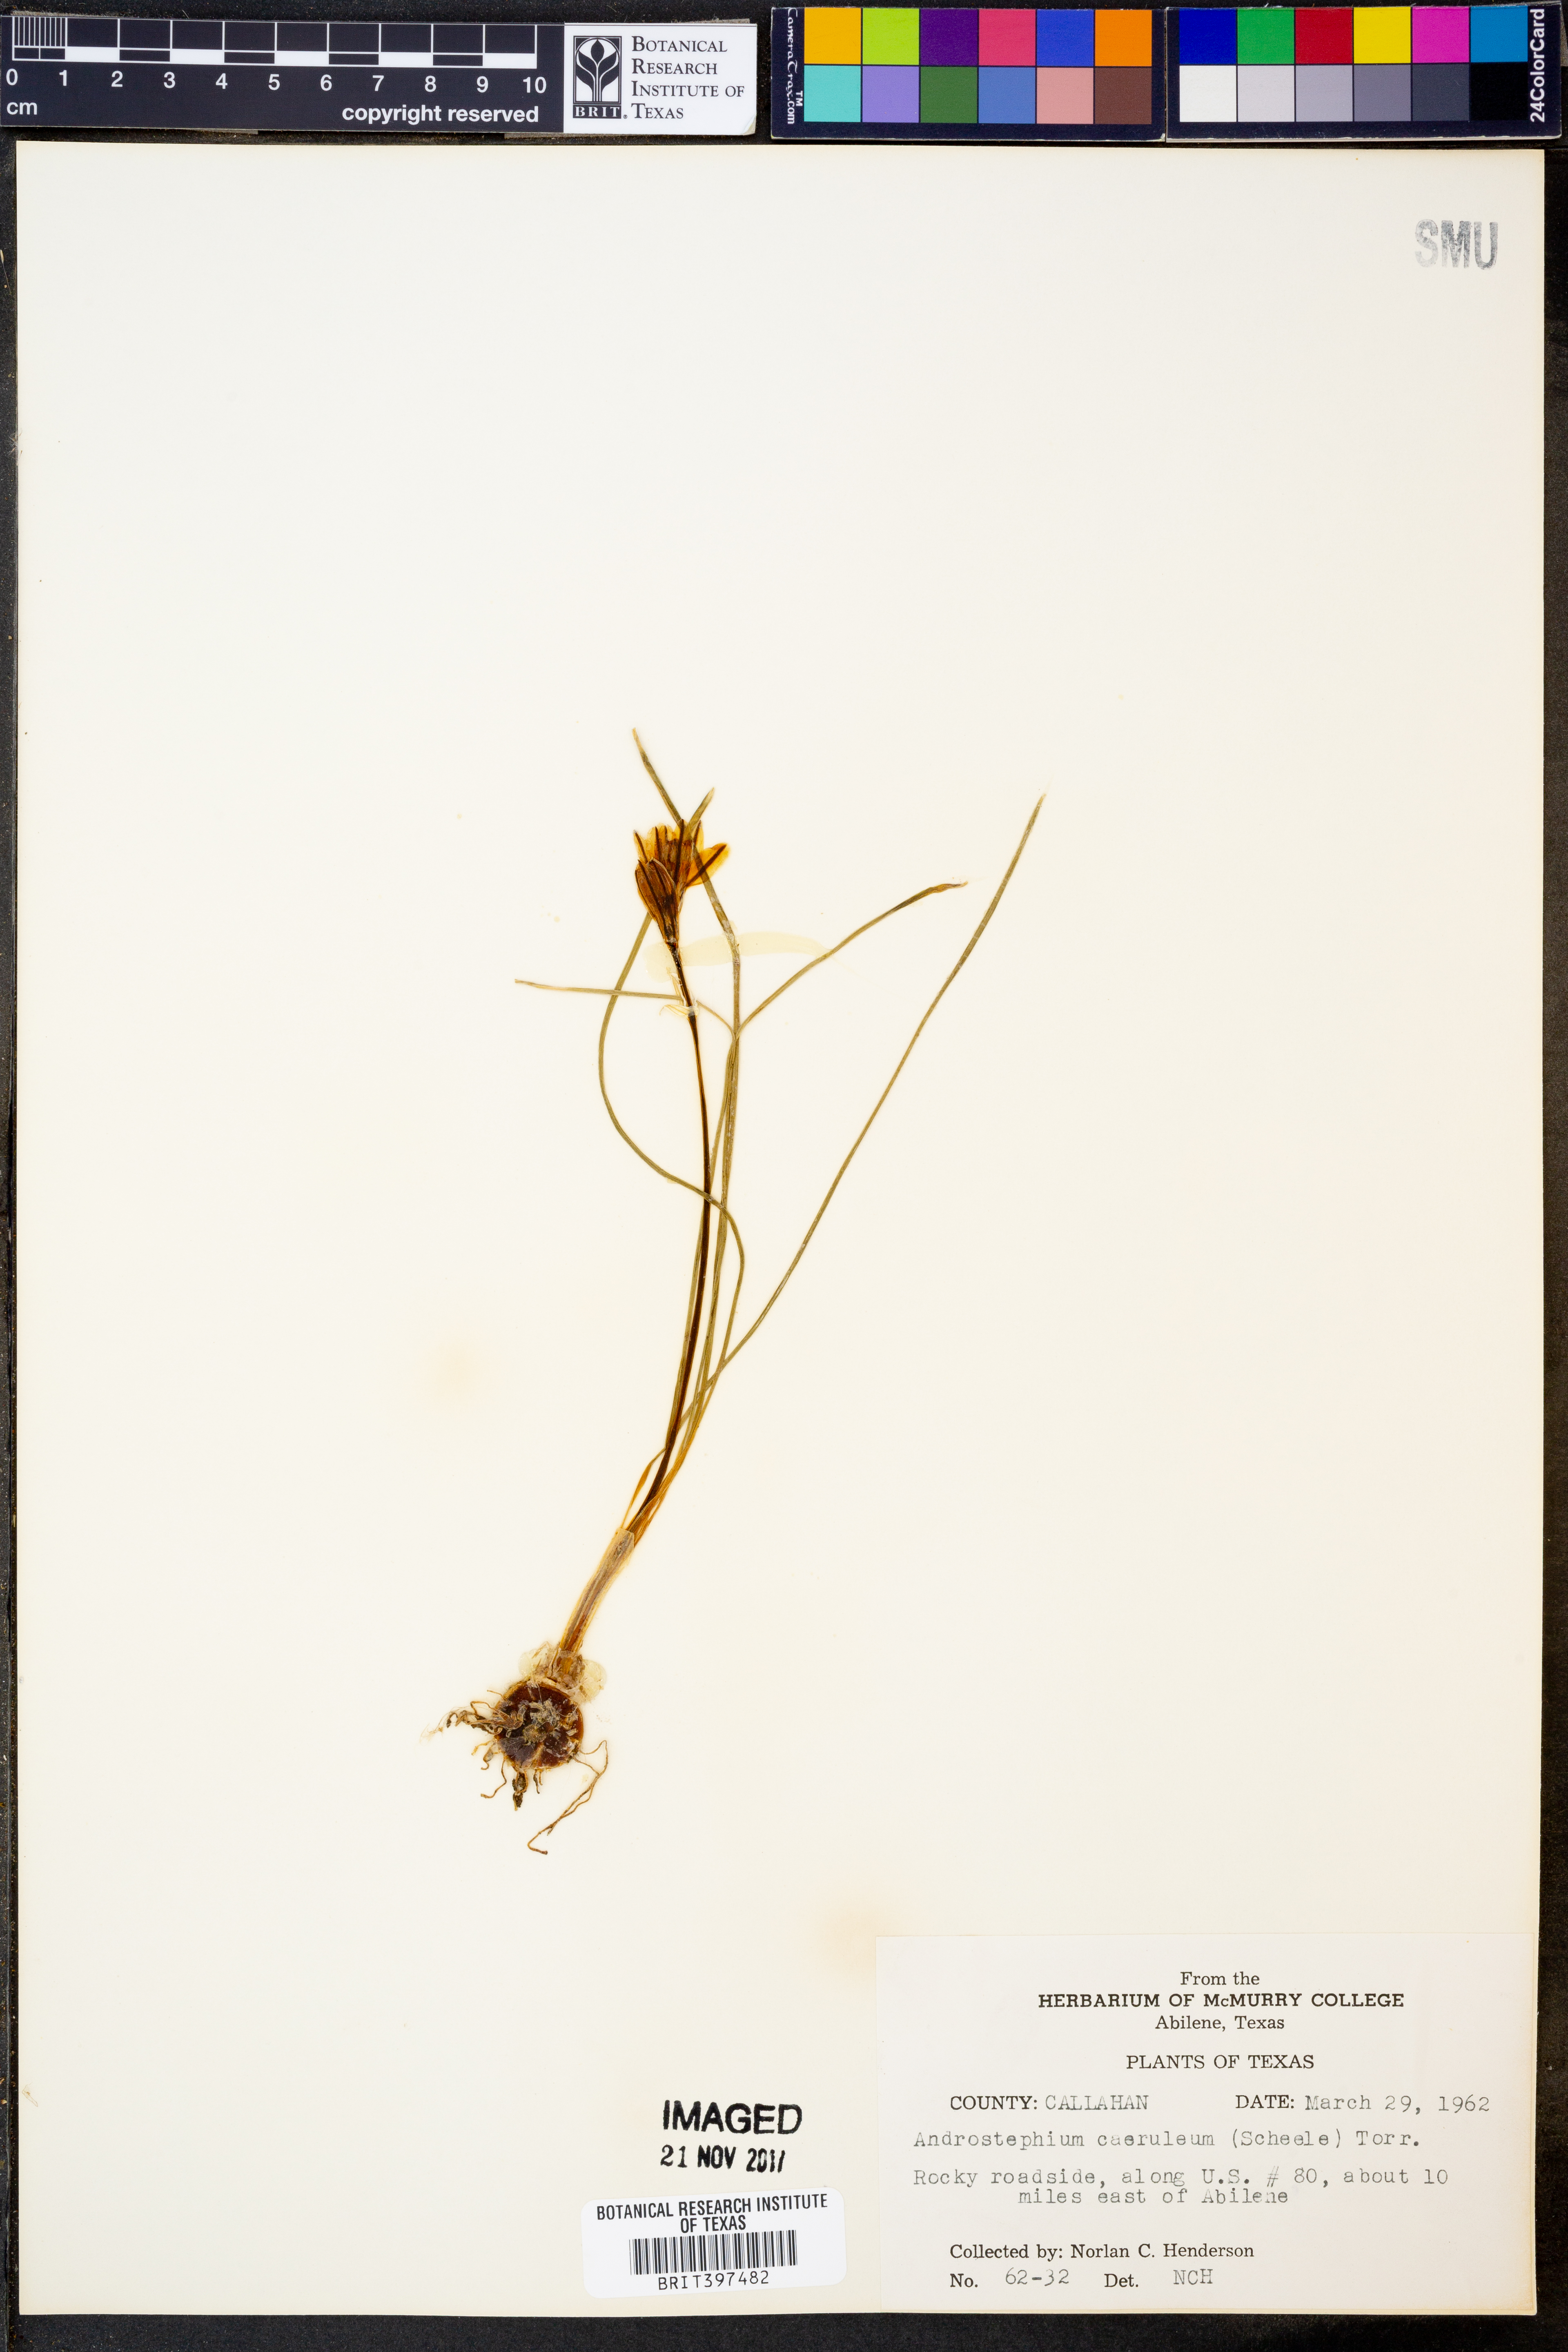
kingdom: Plantae
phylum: Tracheophyta
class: Liliopsida
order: Asparagales
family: Asparagaceae
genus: Androstephium
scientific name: Androstephium caeruleum
